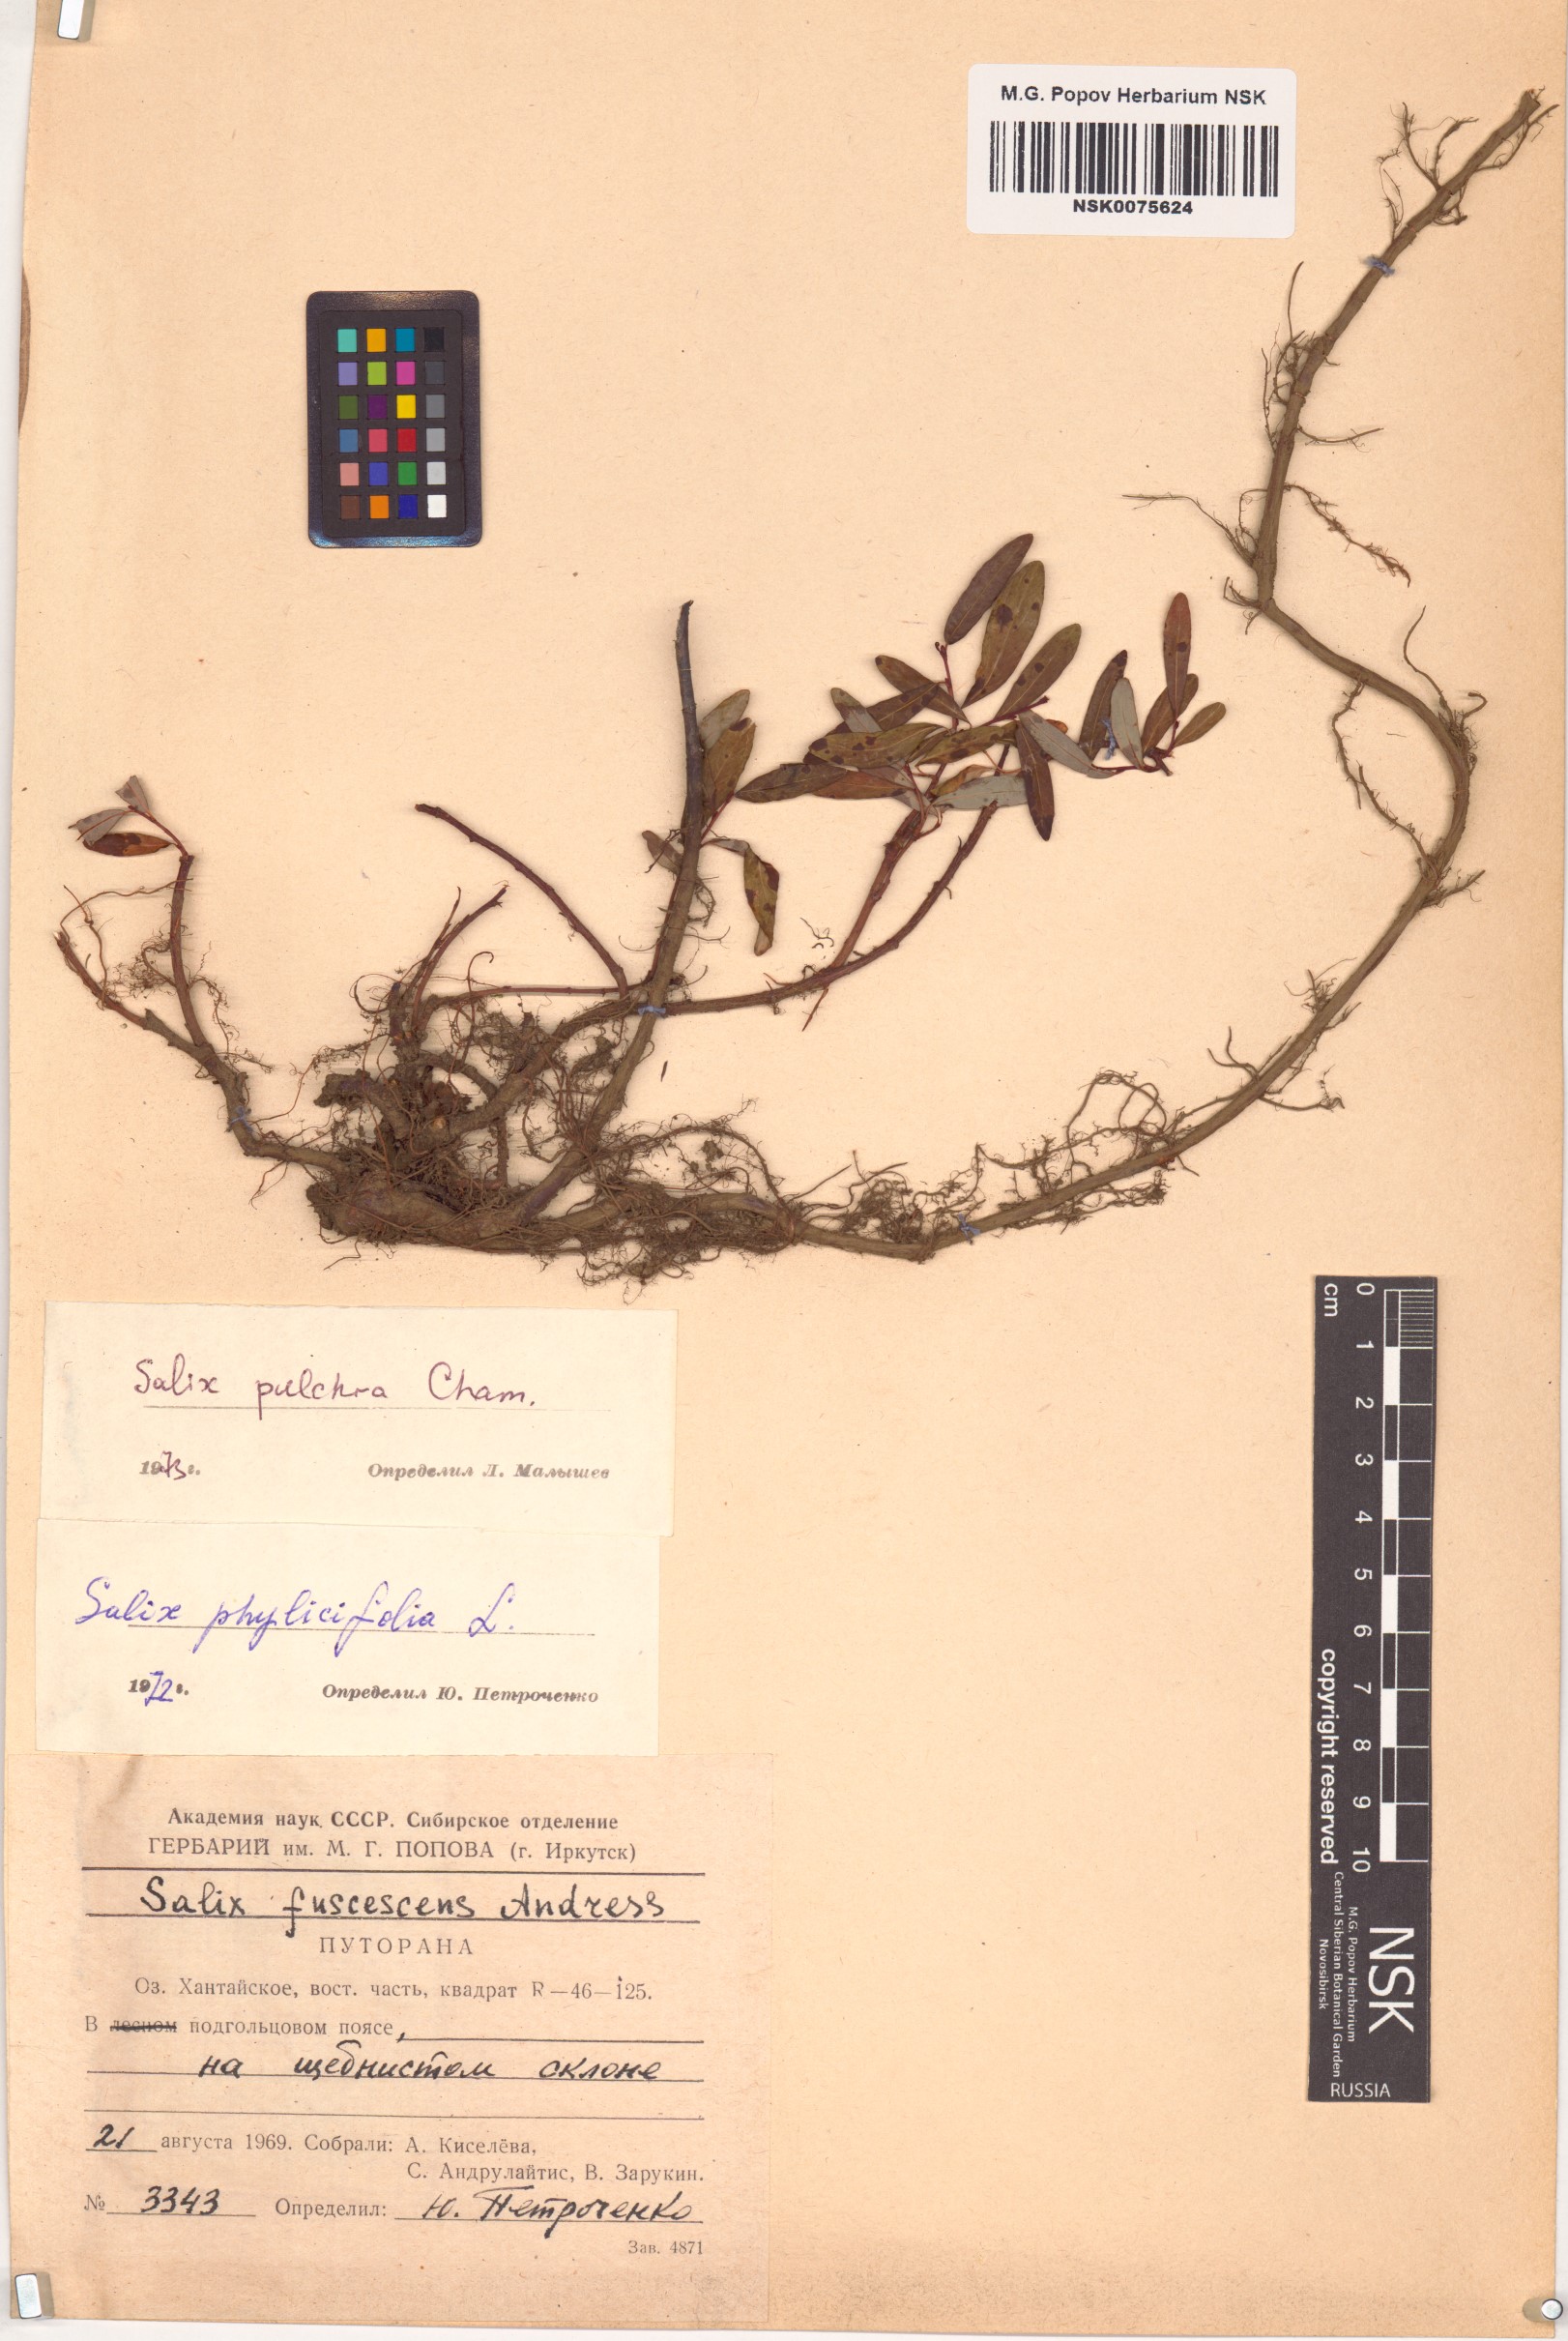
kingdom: Plantae
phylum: Tracheophyta
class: Magnoliopsida
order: Malpighiales
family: Salicaceae
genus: Salix
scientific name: Salix pulchra
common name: Diamond-leaved willow
